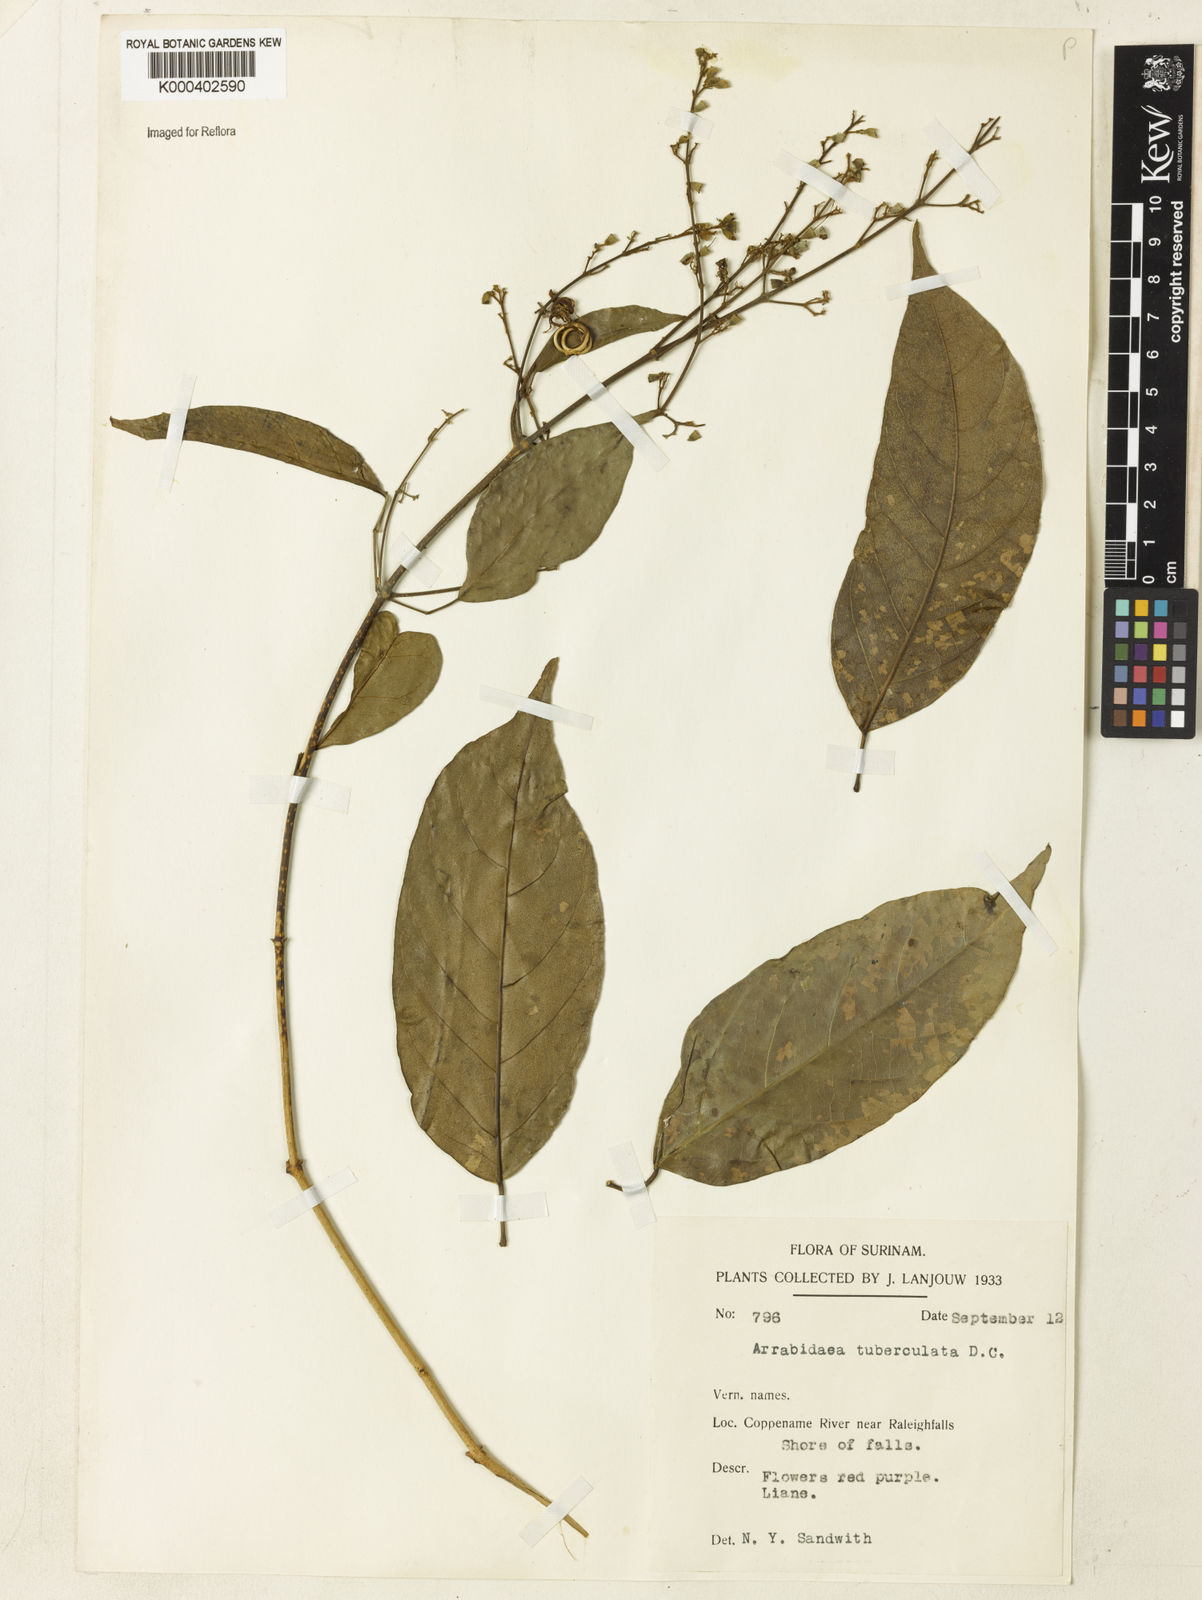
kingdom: Plantae
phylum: Tracheophyta
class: Magnoliopsida
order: Lamiales
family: Bignoniaceae
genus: Fridericia
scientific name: Fridericia tuberculata
